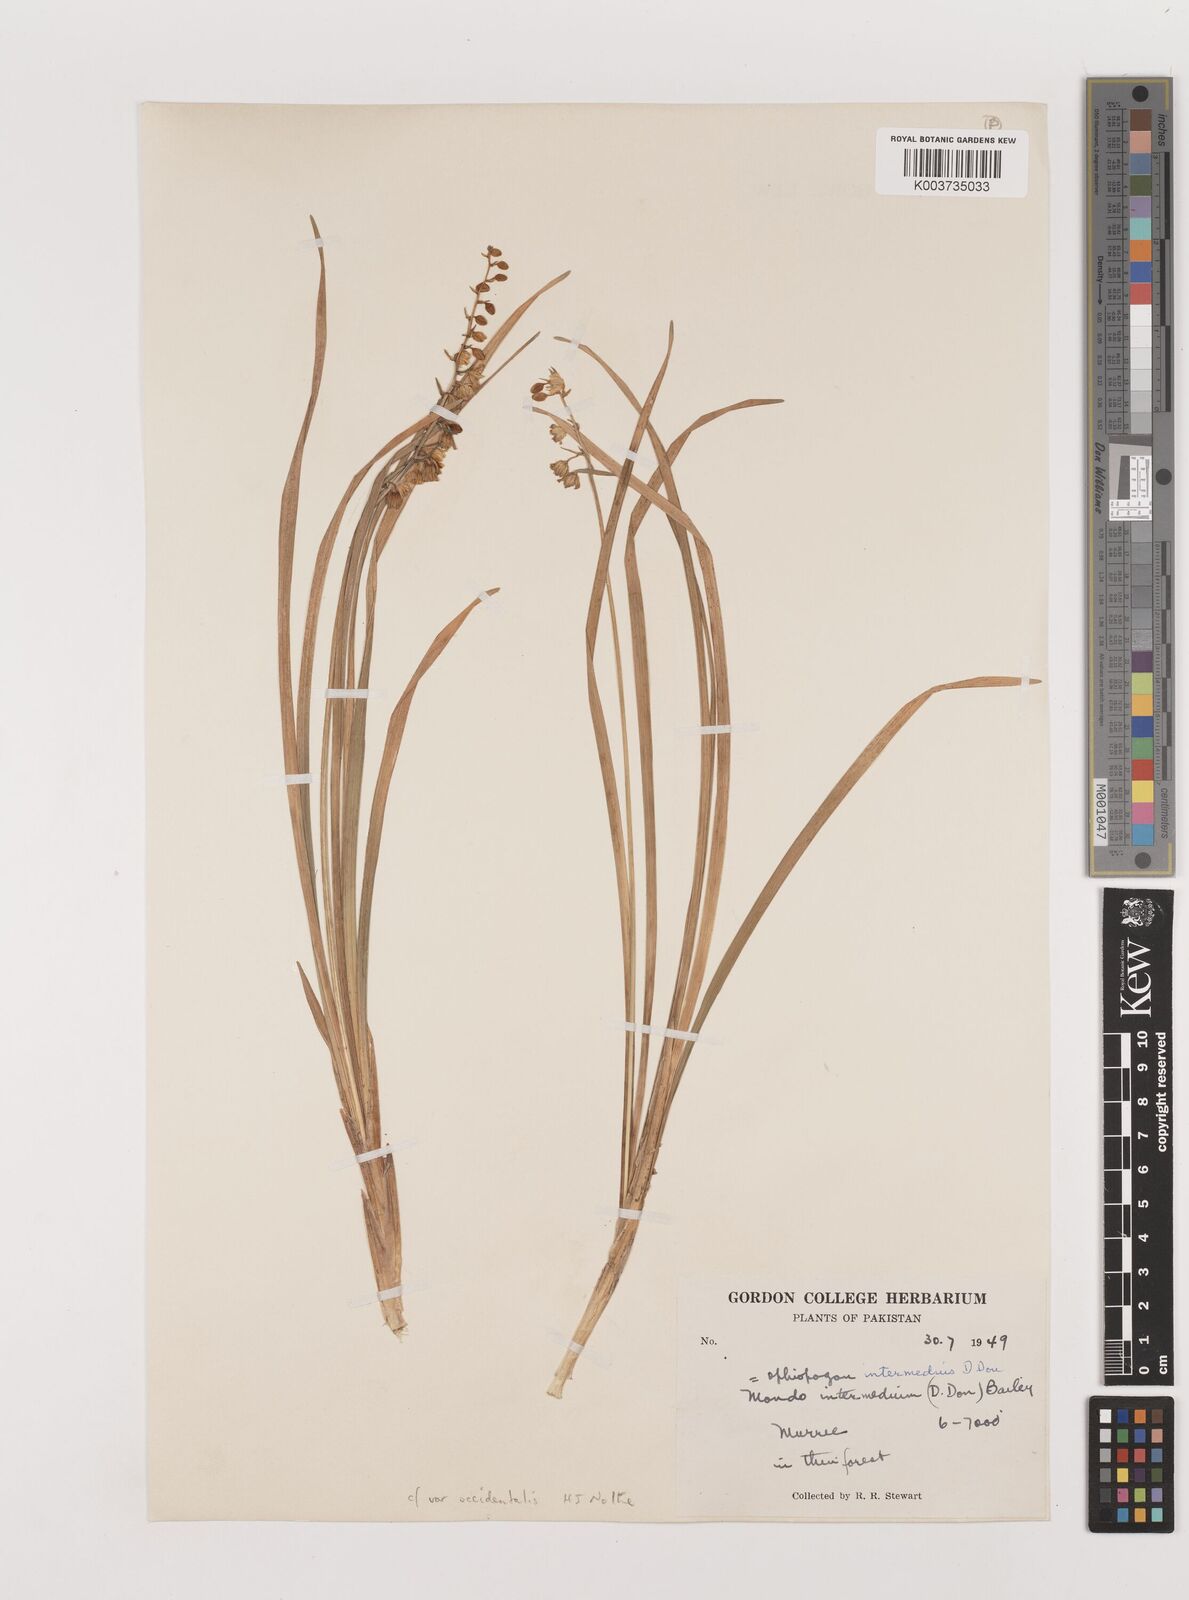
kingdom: Plantae
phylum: Tracheophyta
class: Liliopsida
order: Asparagales
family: Asparagaceae
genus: Ophiopogon
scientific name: Ophiopogon intermedius
